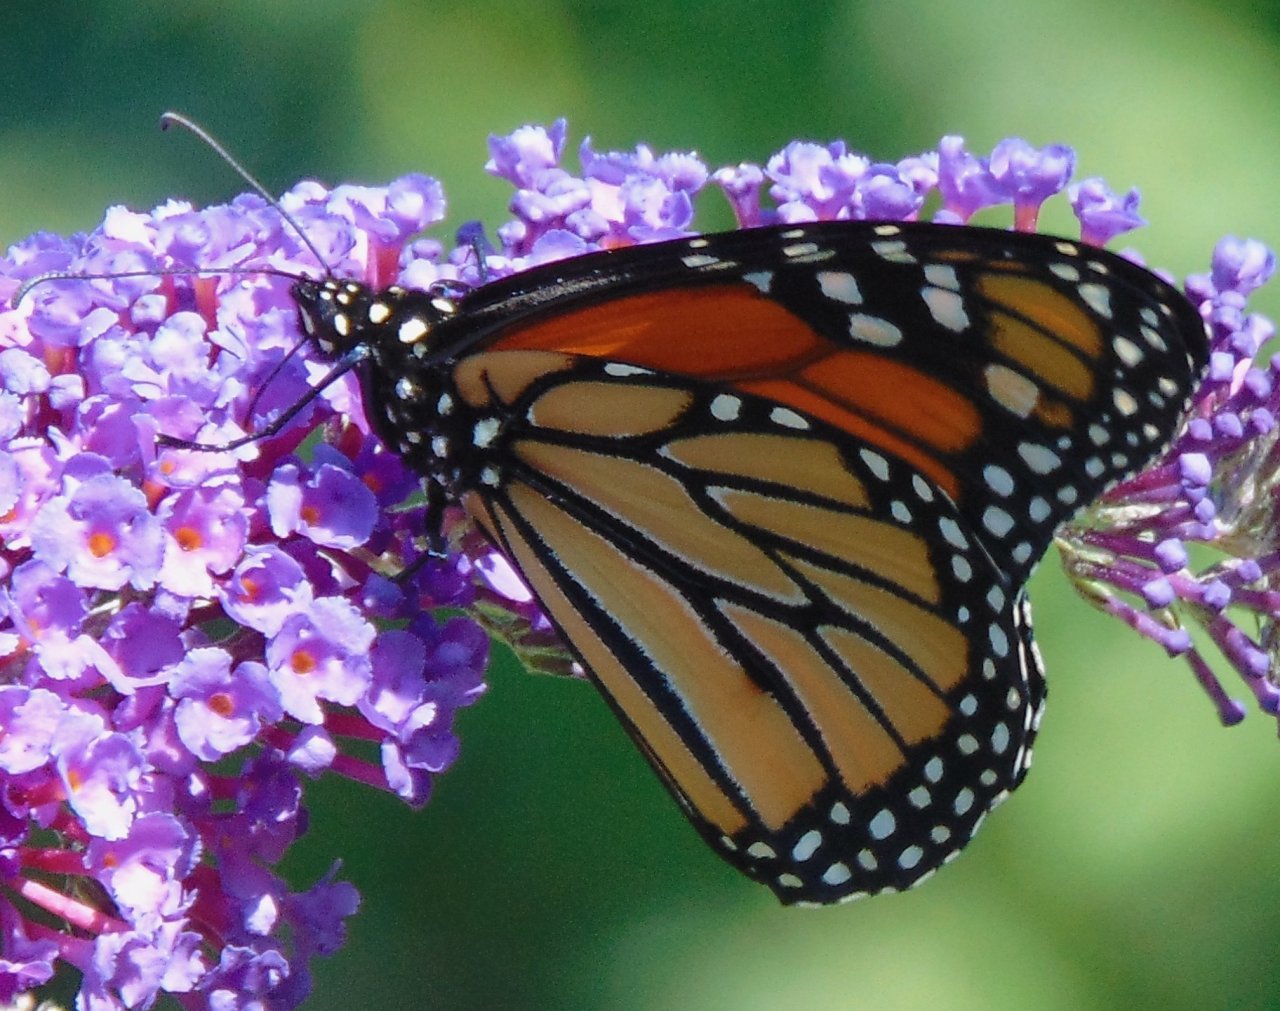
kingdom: Animalia
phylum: Arthropoda
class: Insecta
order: Lepidoptera
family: Nymphalidae
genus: Danaus
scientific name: Danaus plexippus
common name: Monarch
